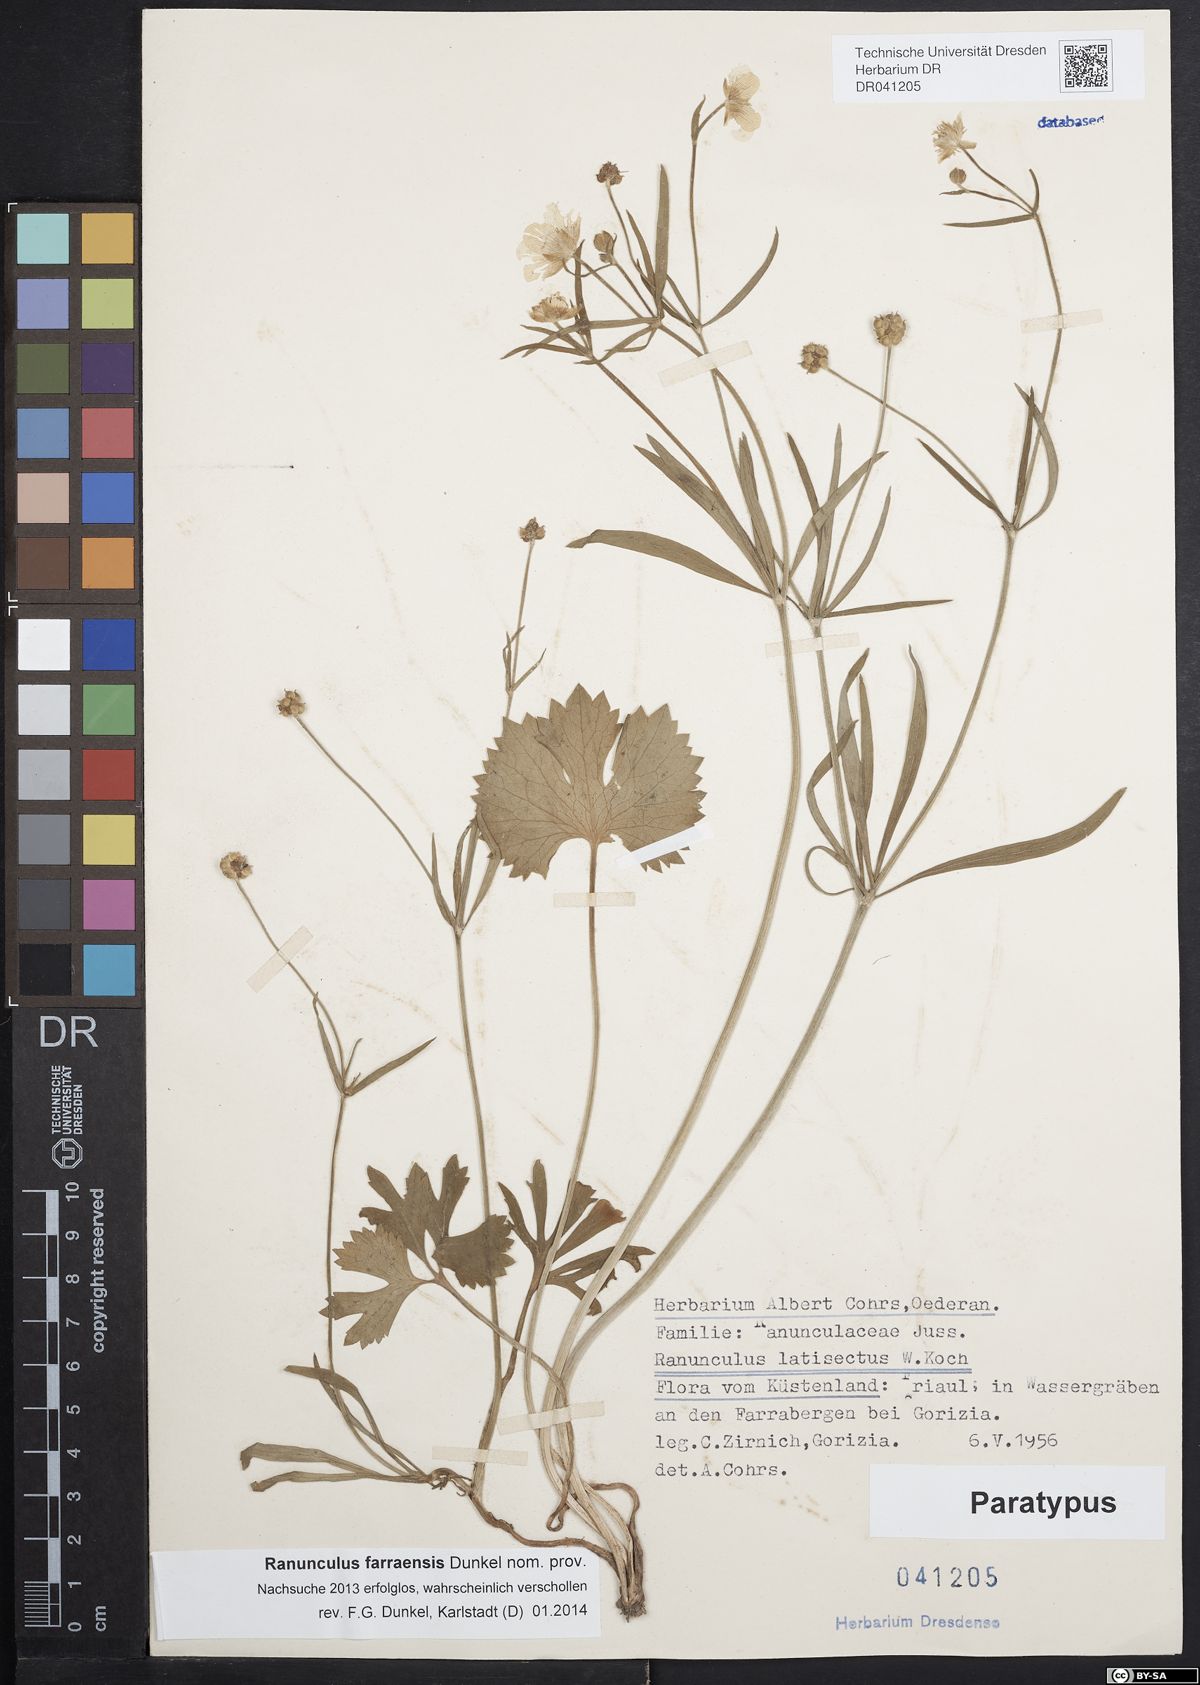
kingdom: Plantae
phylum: Tracheophyta
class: Magnoliopsida
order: Ranunculales
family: Ranunculaceae
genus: Ranunculus
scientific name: Ranunculus farraensis
